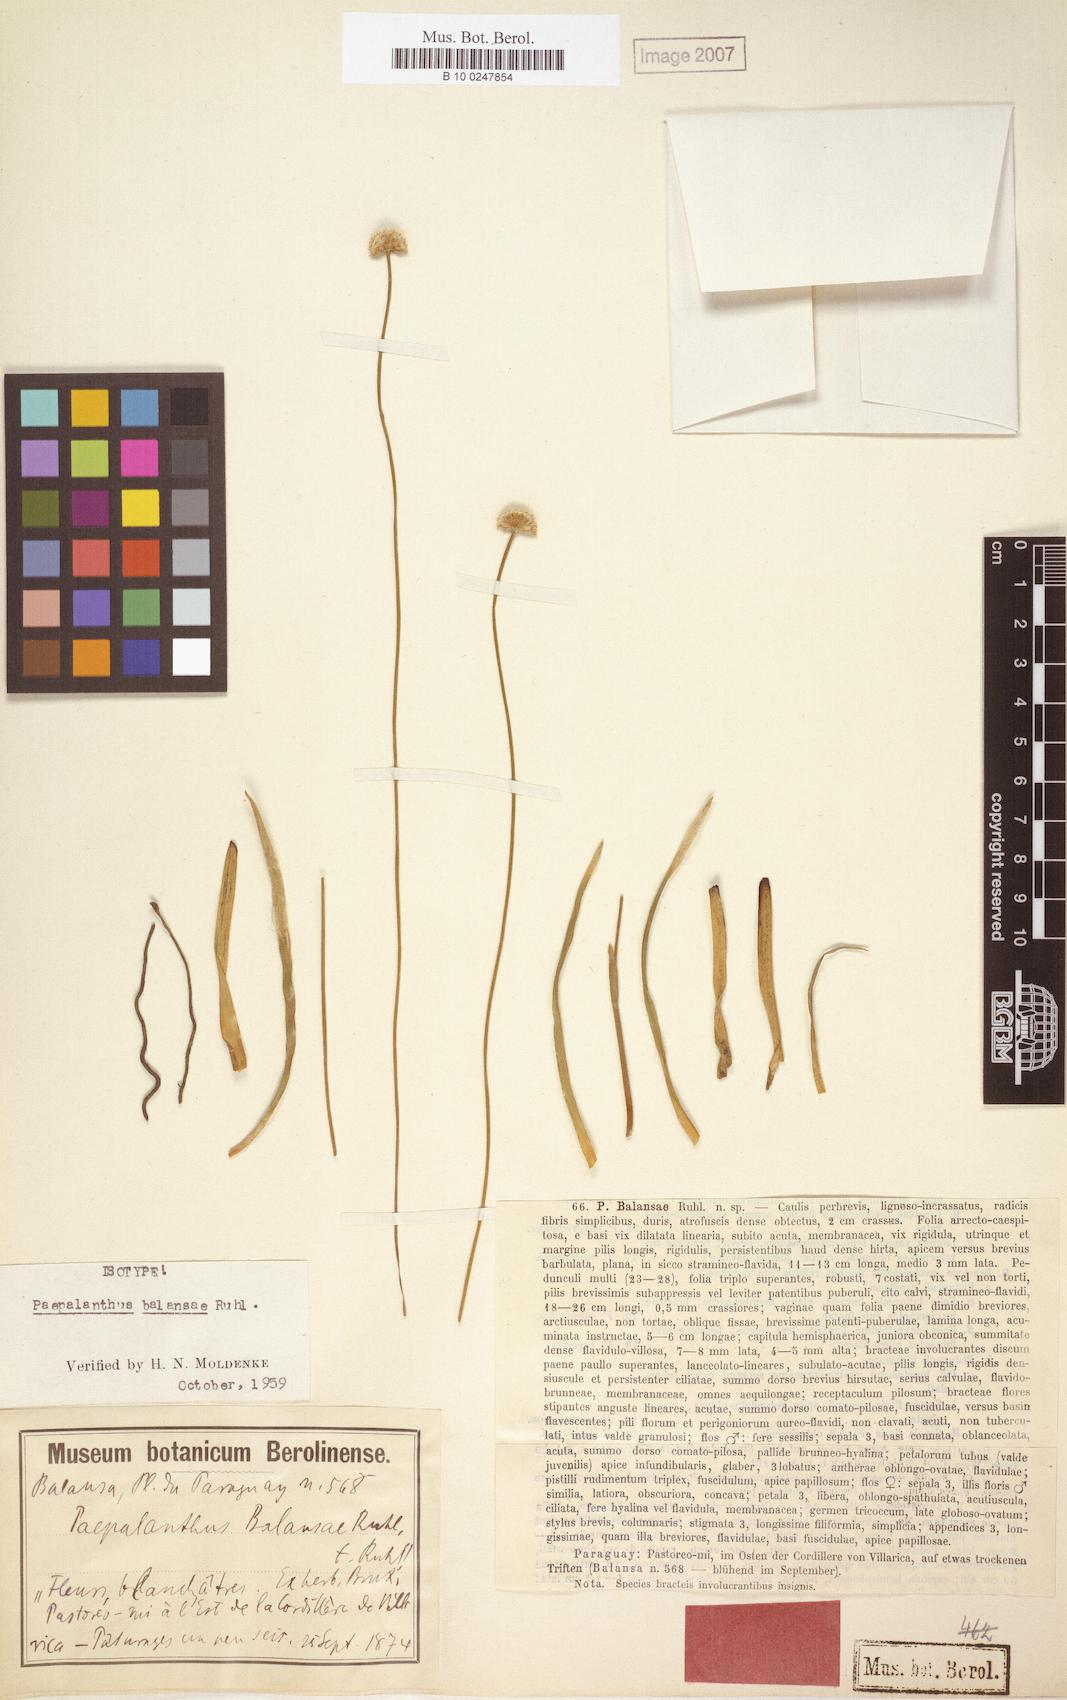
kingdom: Plantae
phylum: Tracheophyta
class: Liliopsida
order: Poales
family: Eriocaulaceae
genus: Paepalanthus
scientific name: Paepalanthus balansae
